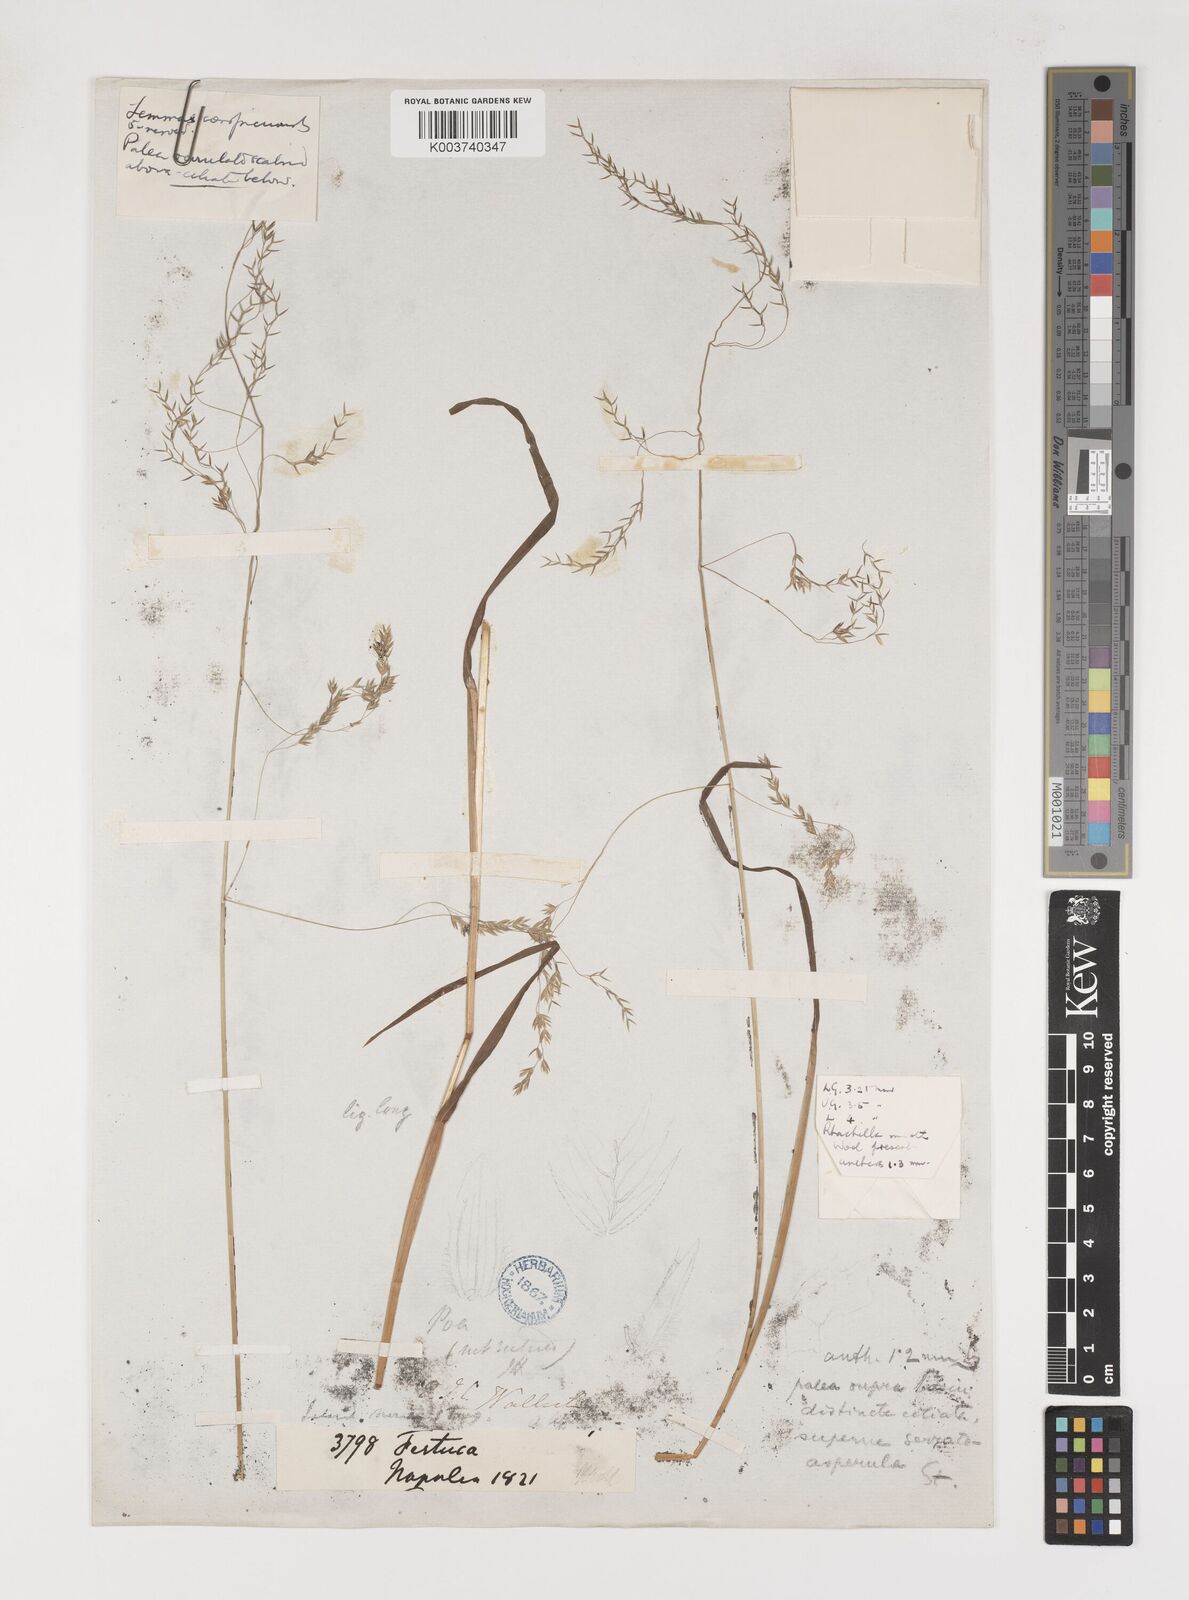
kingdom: Plantae
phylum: Tracheophyta
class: Liliopsida
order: Poales
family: Poaceae
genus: Poa
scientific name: Poa stapfiana
